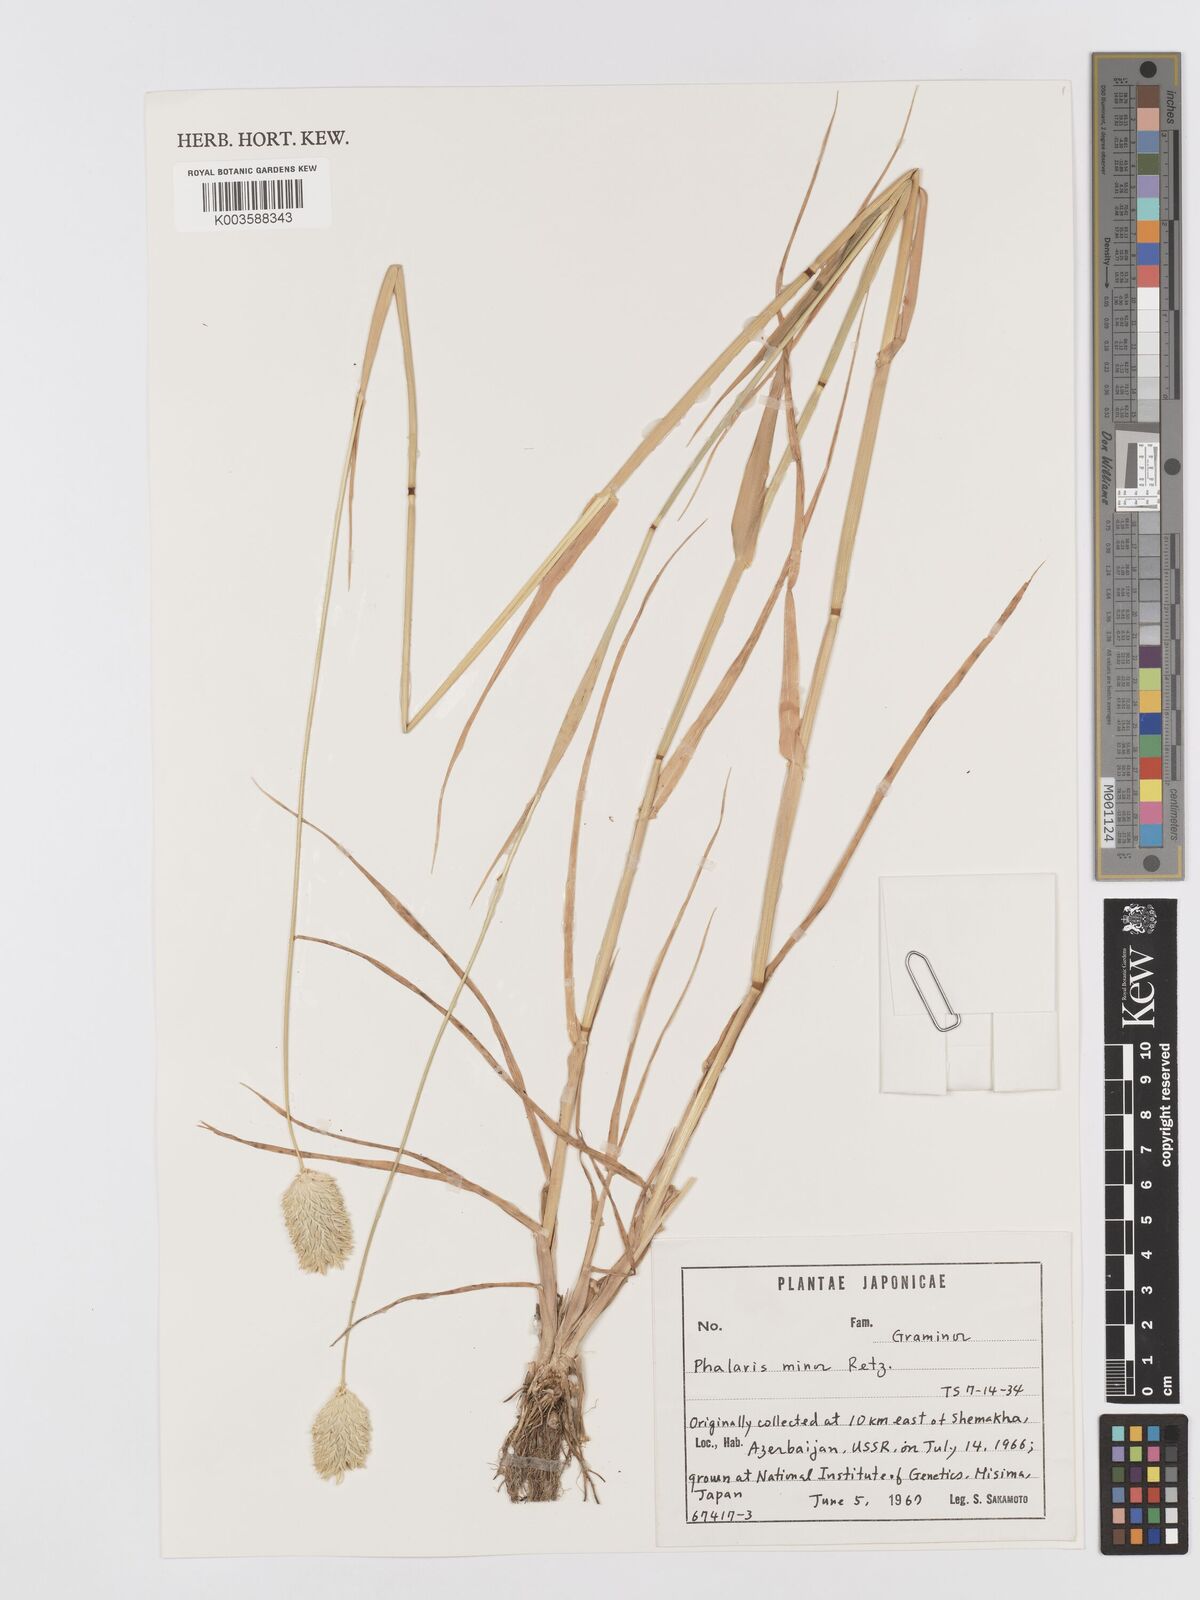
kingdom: Plantae
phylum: Tracheophyta
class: Liliopsida
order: Poales
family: Poaceae
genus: Phalaris
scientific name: Phalaris minor
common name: Littleseed canarygrass
